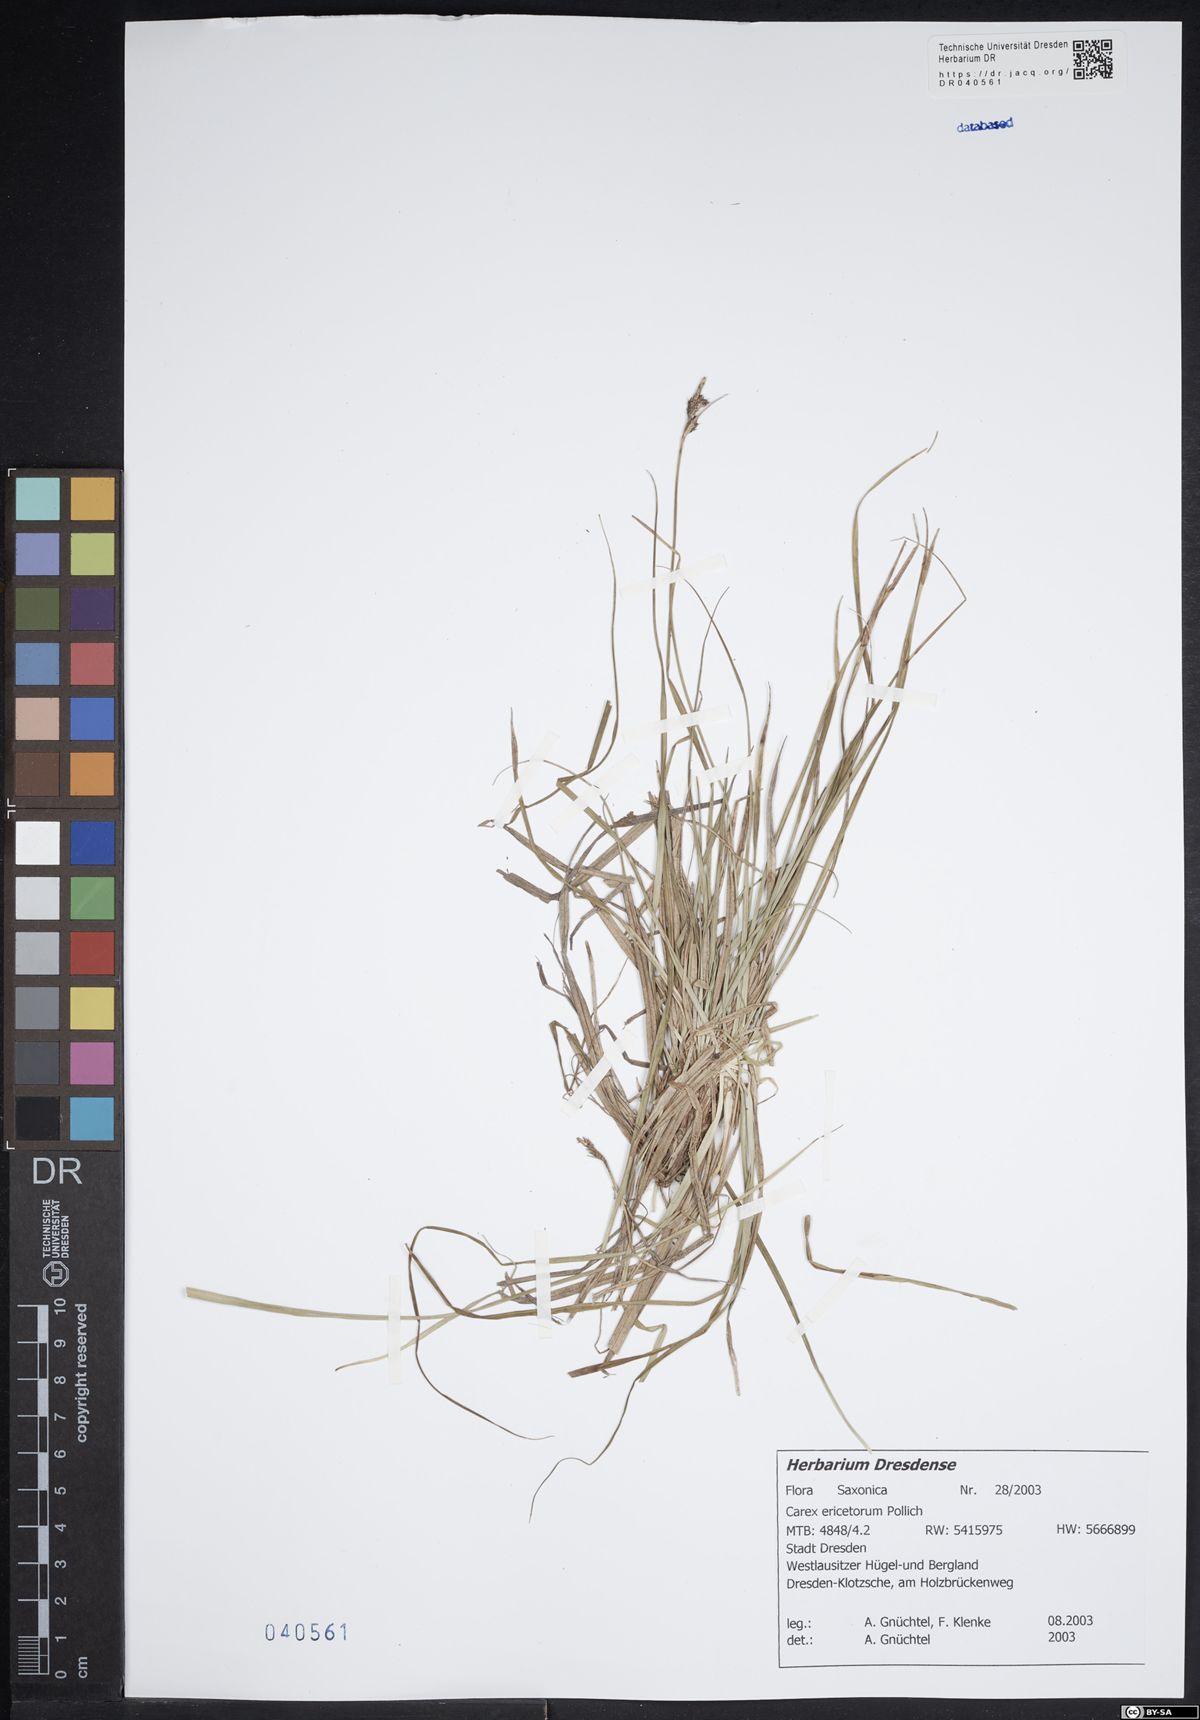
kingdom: Plantae
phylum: Tracheophyta
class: Liliopsida
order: Poales
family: Cyperaceae
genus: Carex
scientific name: Carex ericetorum
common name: Rare spring-sedge
